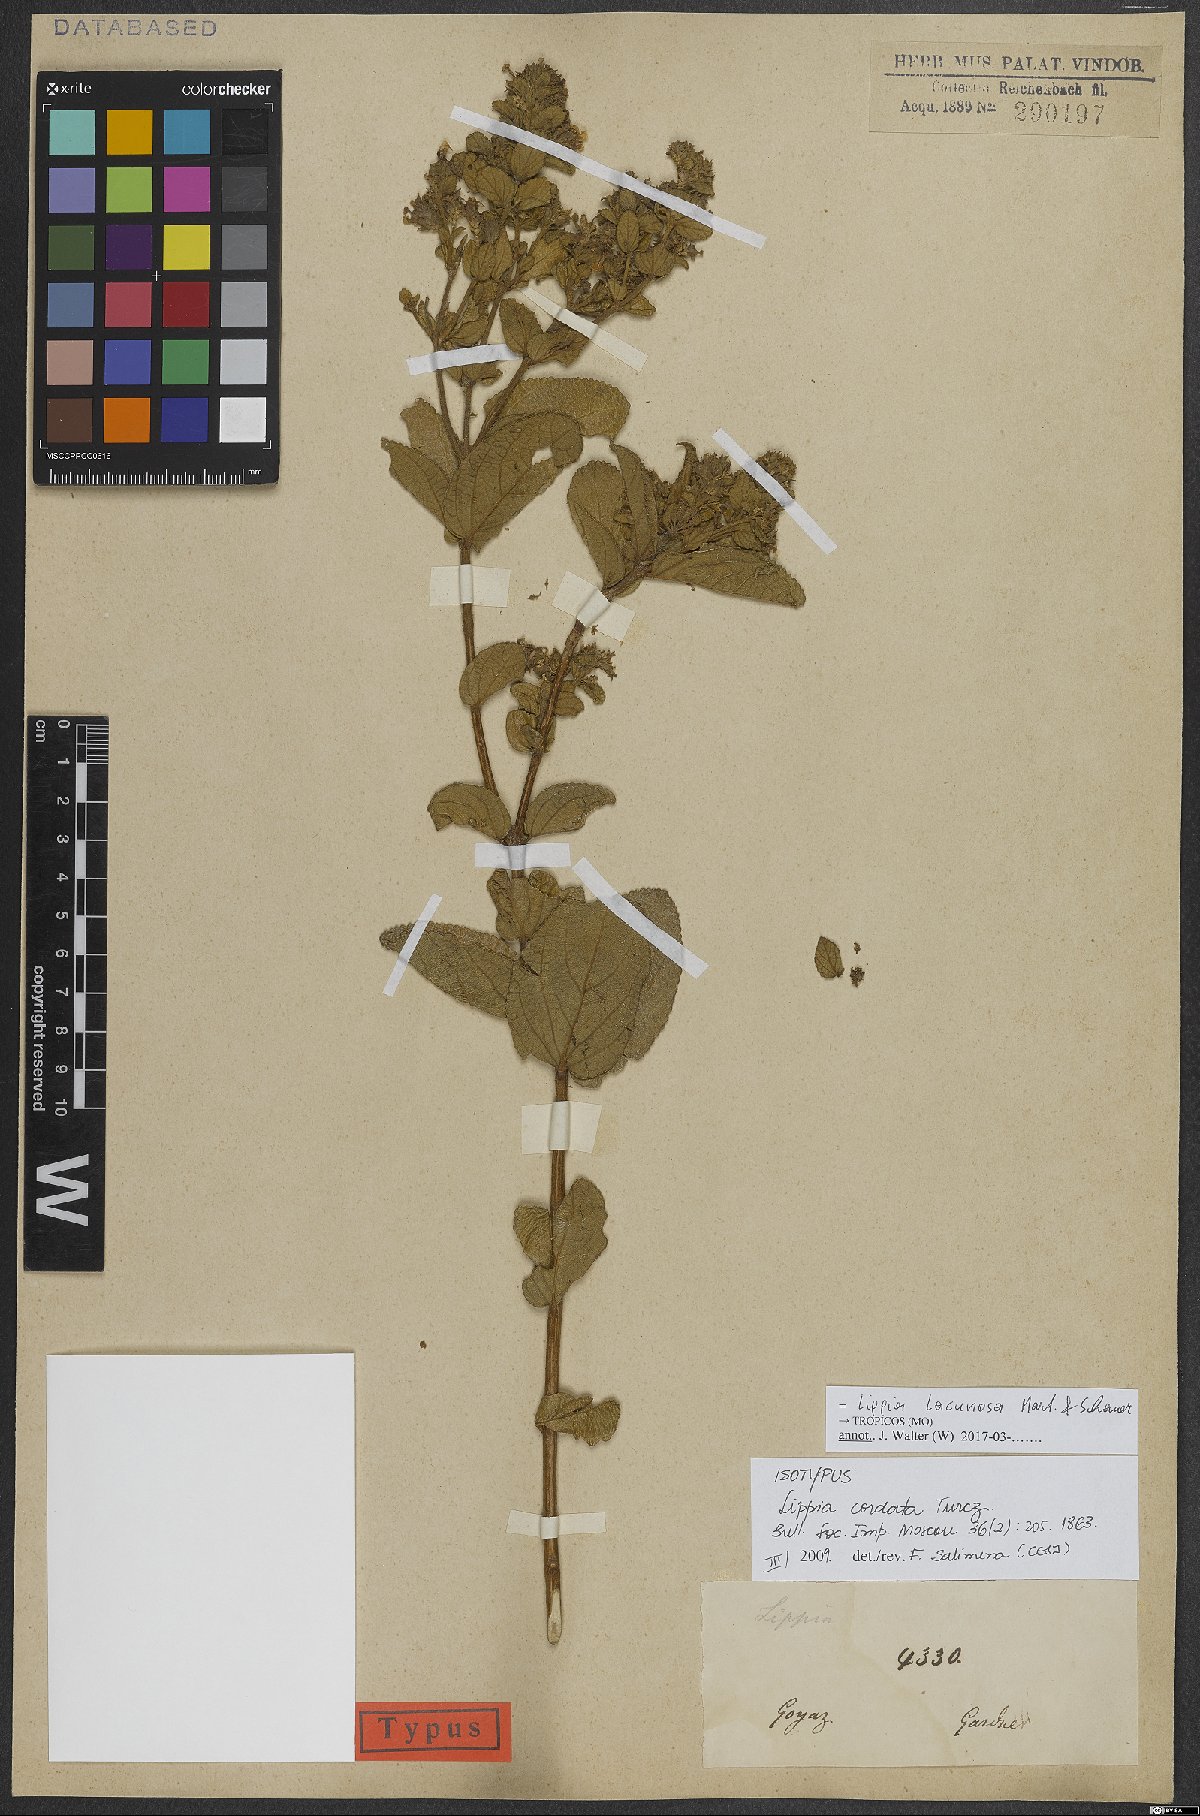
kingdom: Plantae
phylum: Tracheophyta
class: Magnoliopsida
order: Lamiales
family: Verbenaceae
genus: Lippia
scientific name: Lippia lacunosa
